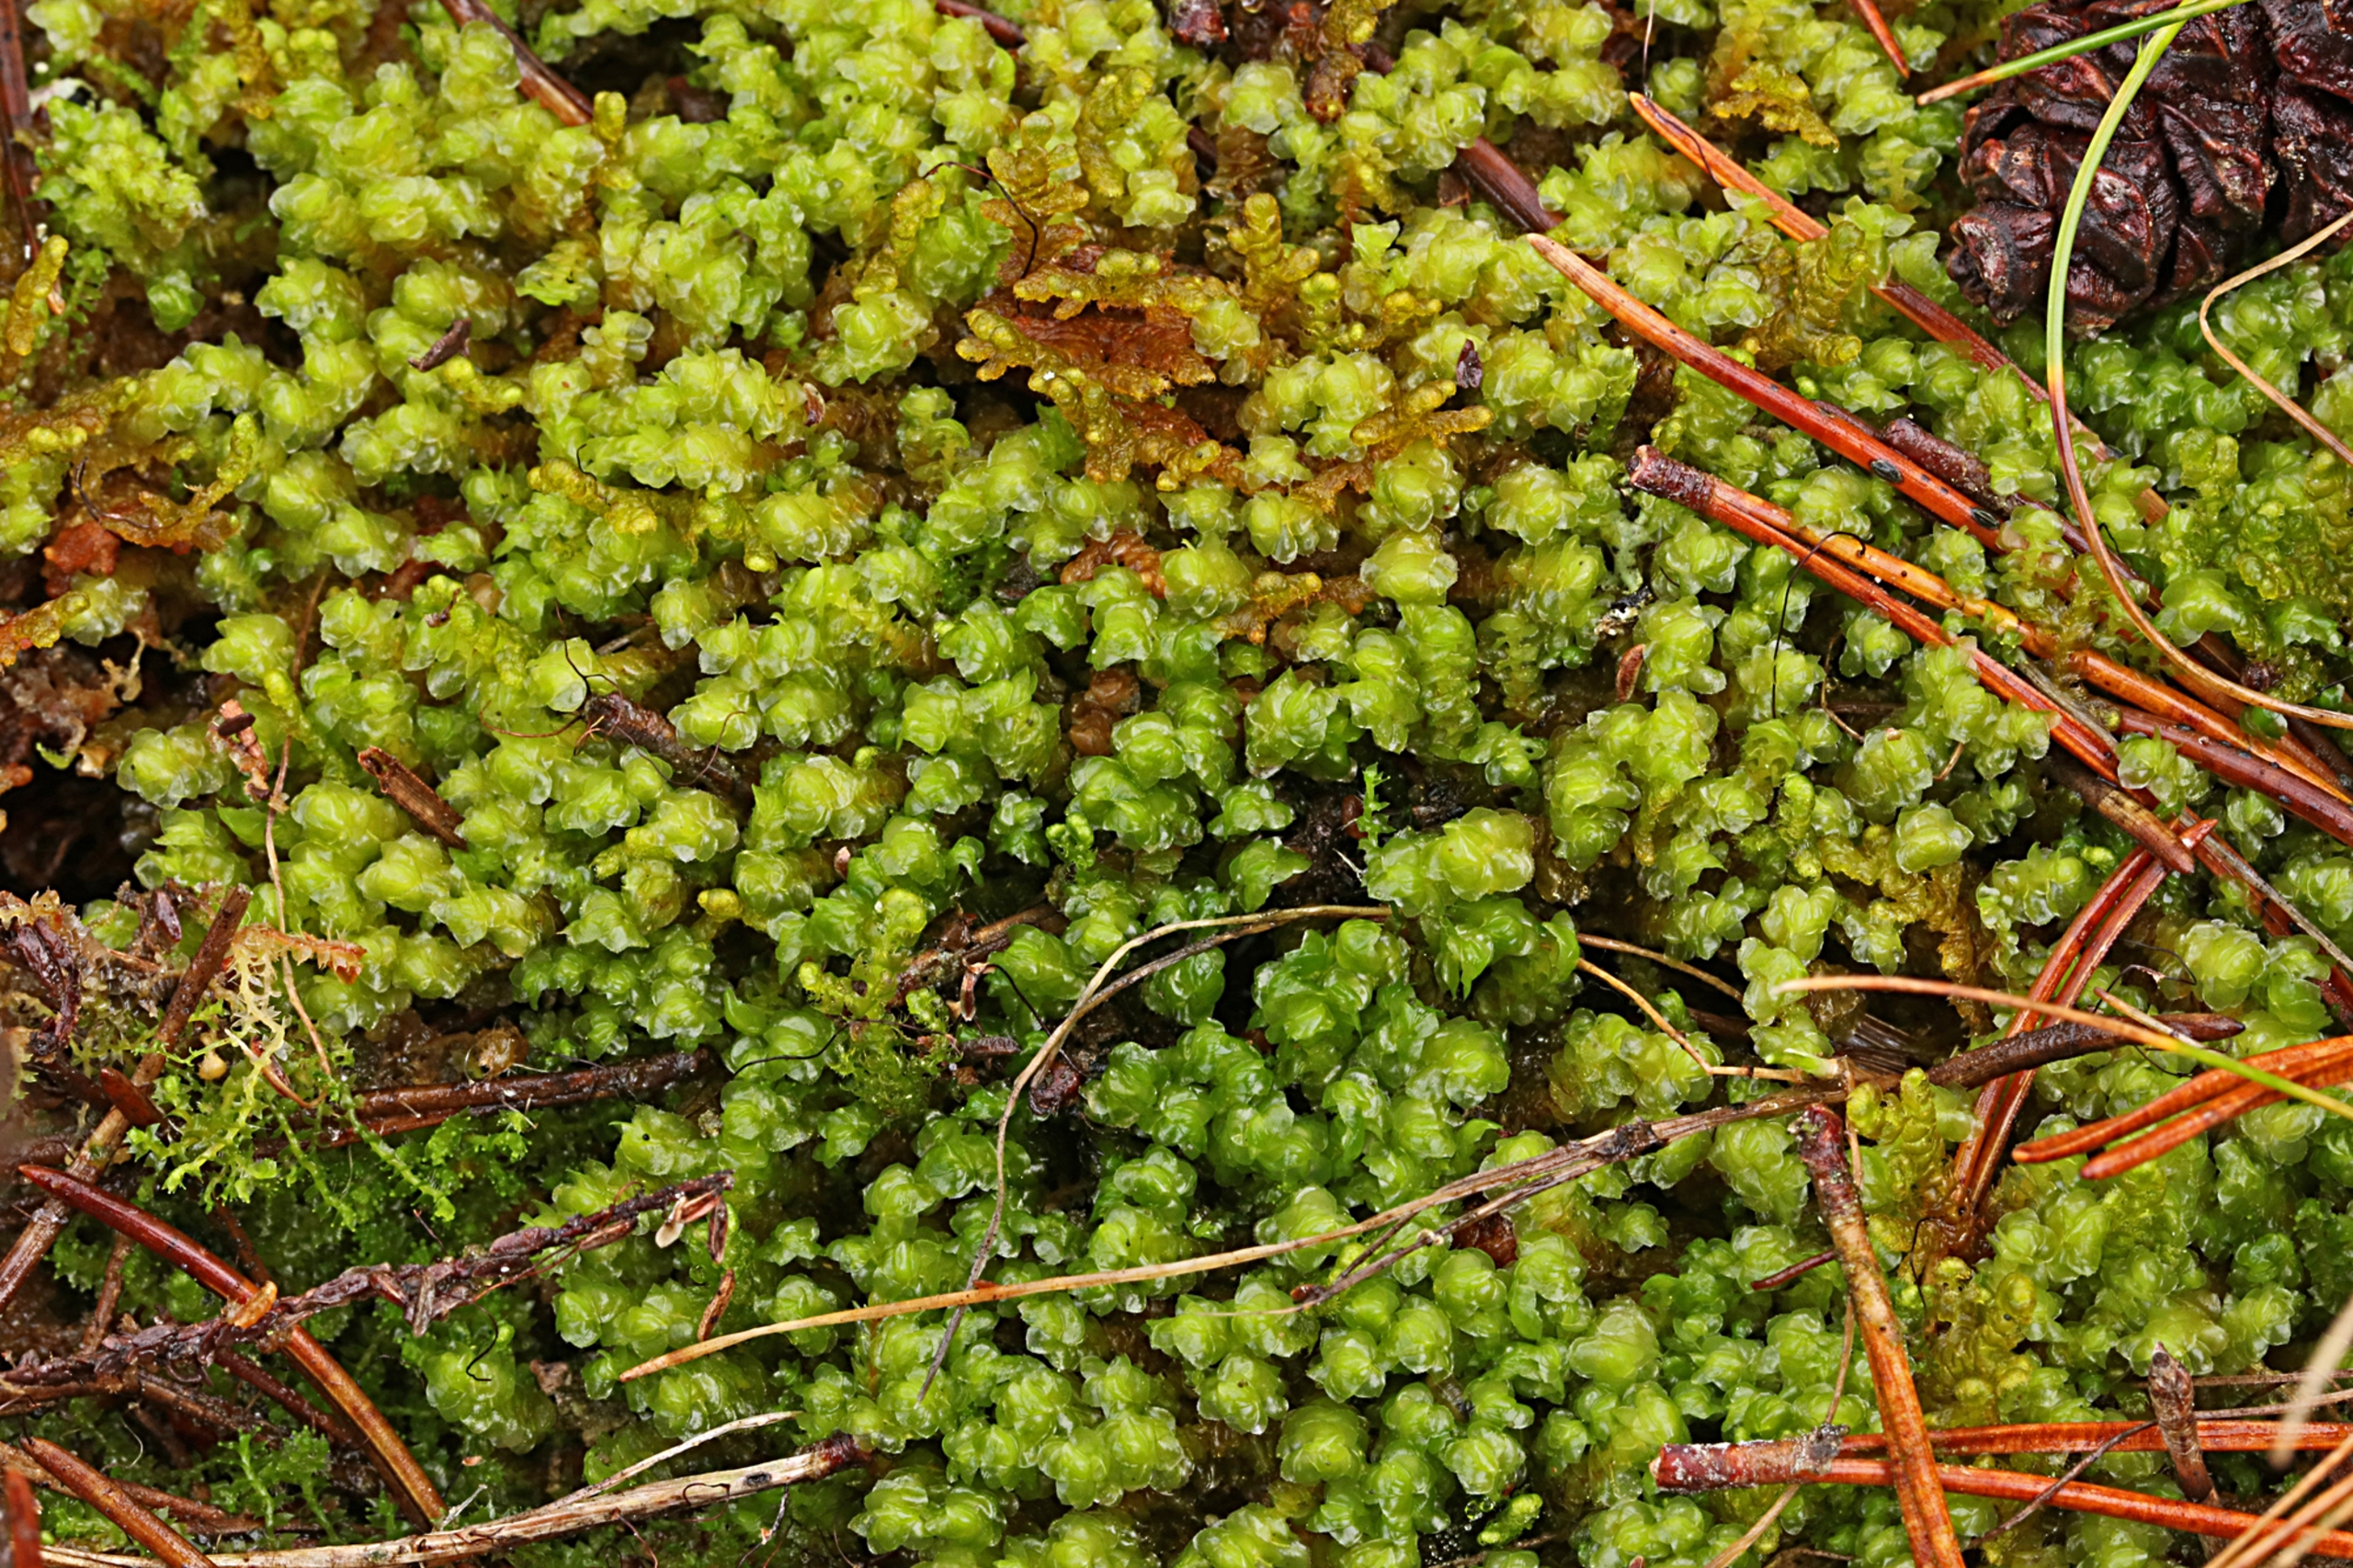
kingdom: Plantae
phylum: Marchantiophyta
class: Jungermanniopsida
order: Jungermanniales
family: Scapaniaceae
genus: Scapania
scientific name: Scapania gracilis
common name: Gulbrun tveblad
